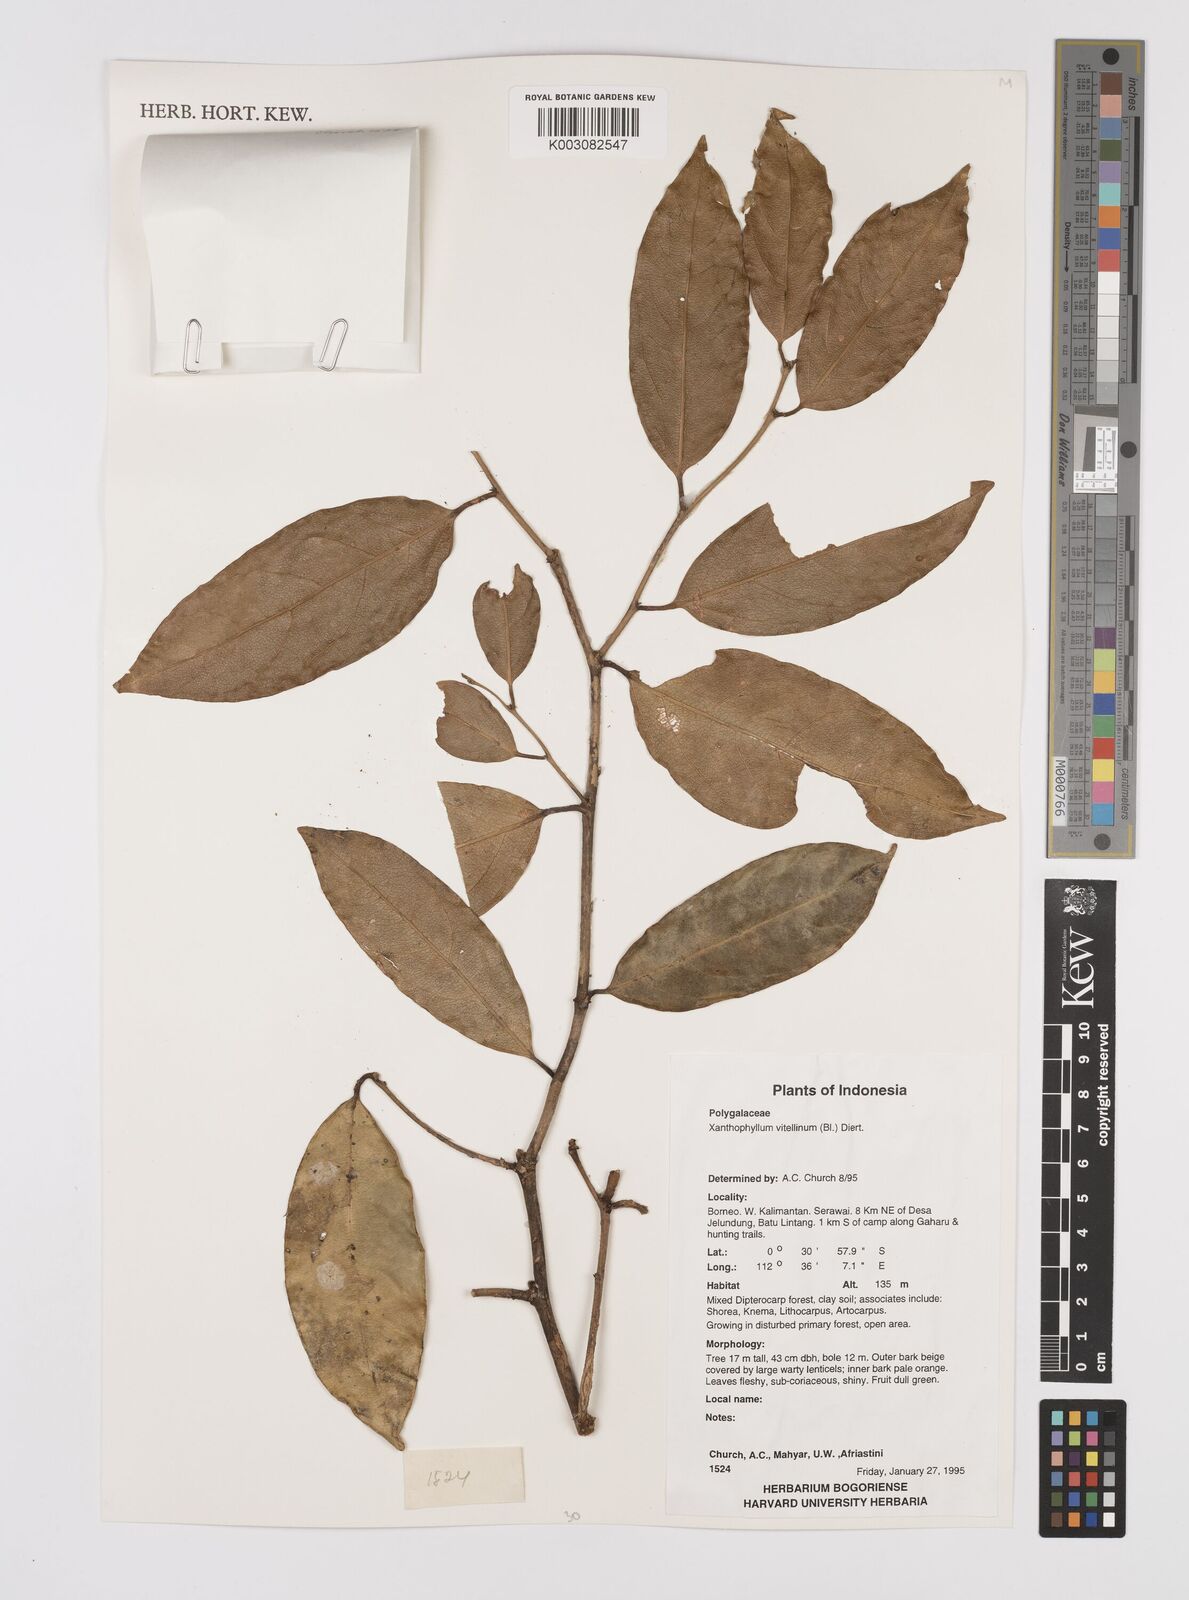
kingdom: Plantae
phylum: Tracheophyta
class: Magnoliopsida
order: Fabales
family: Polygalaceae
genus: Xanthophyllum
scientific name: Xanthophyllum vitellinum
